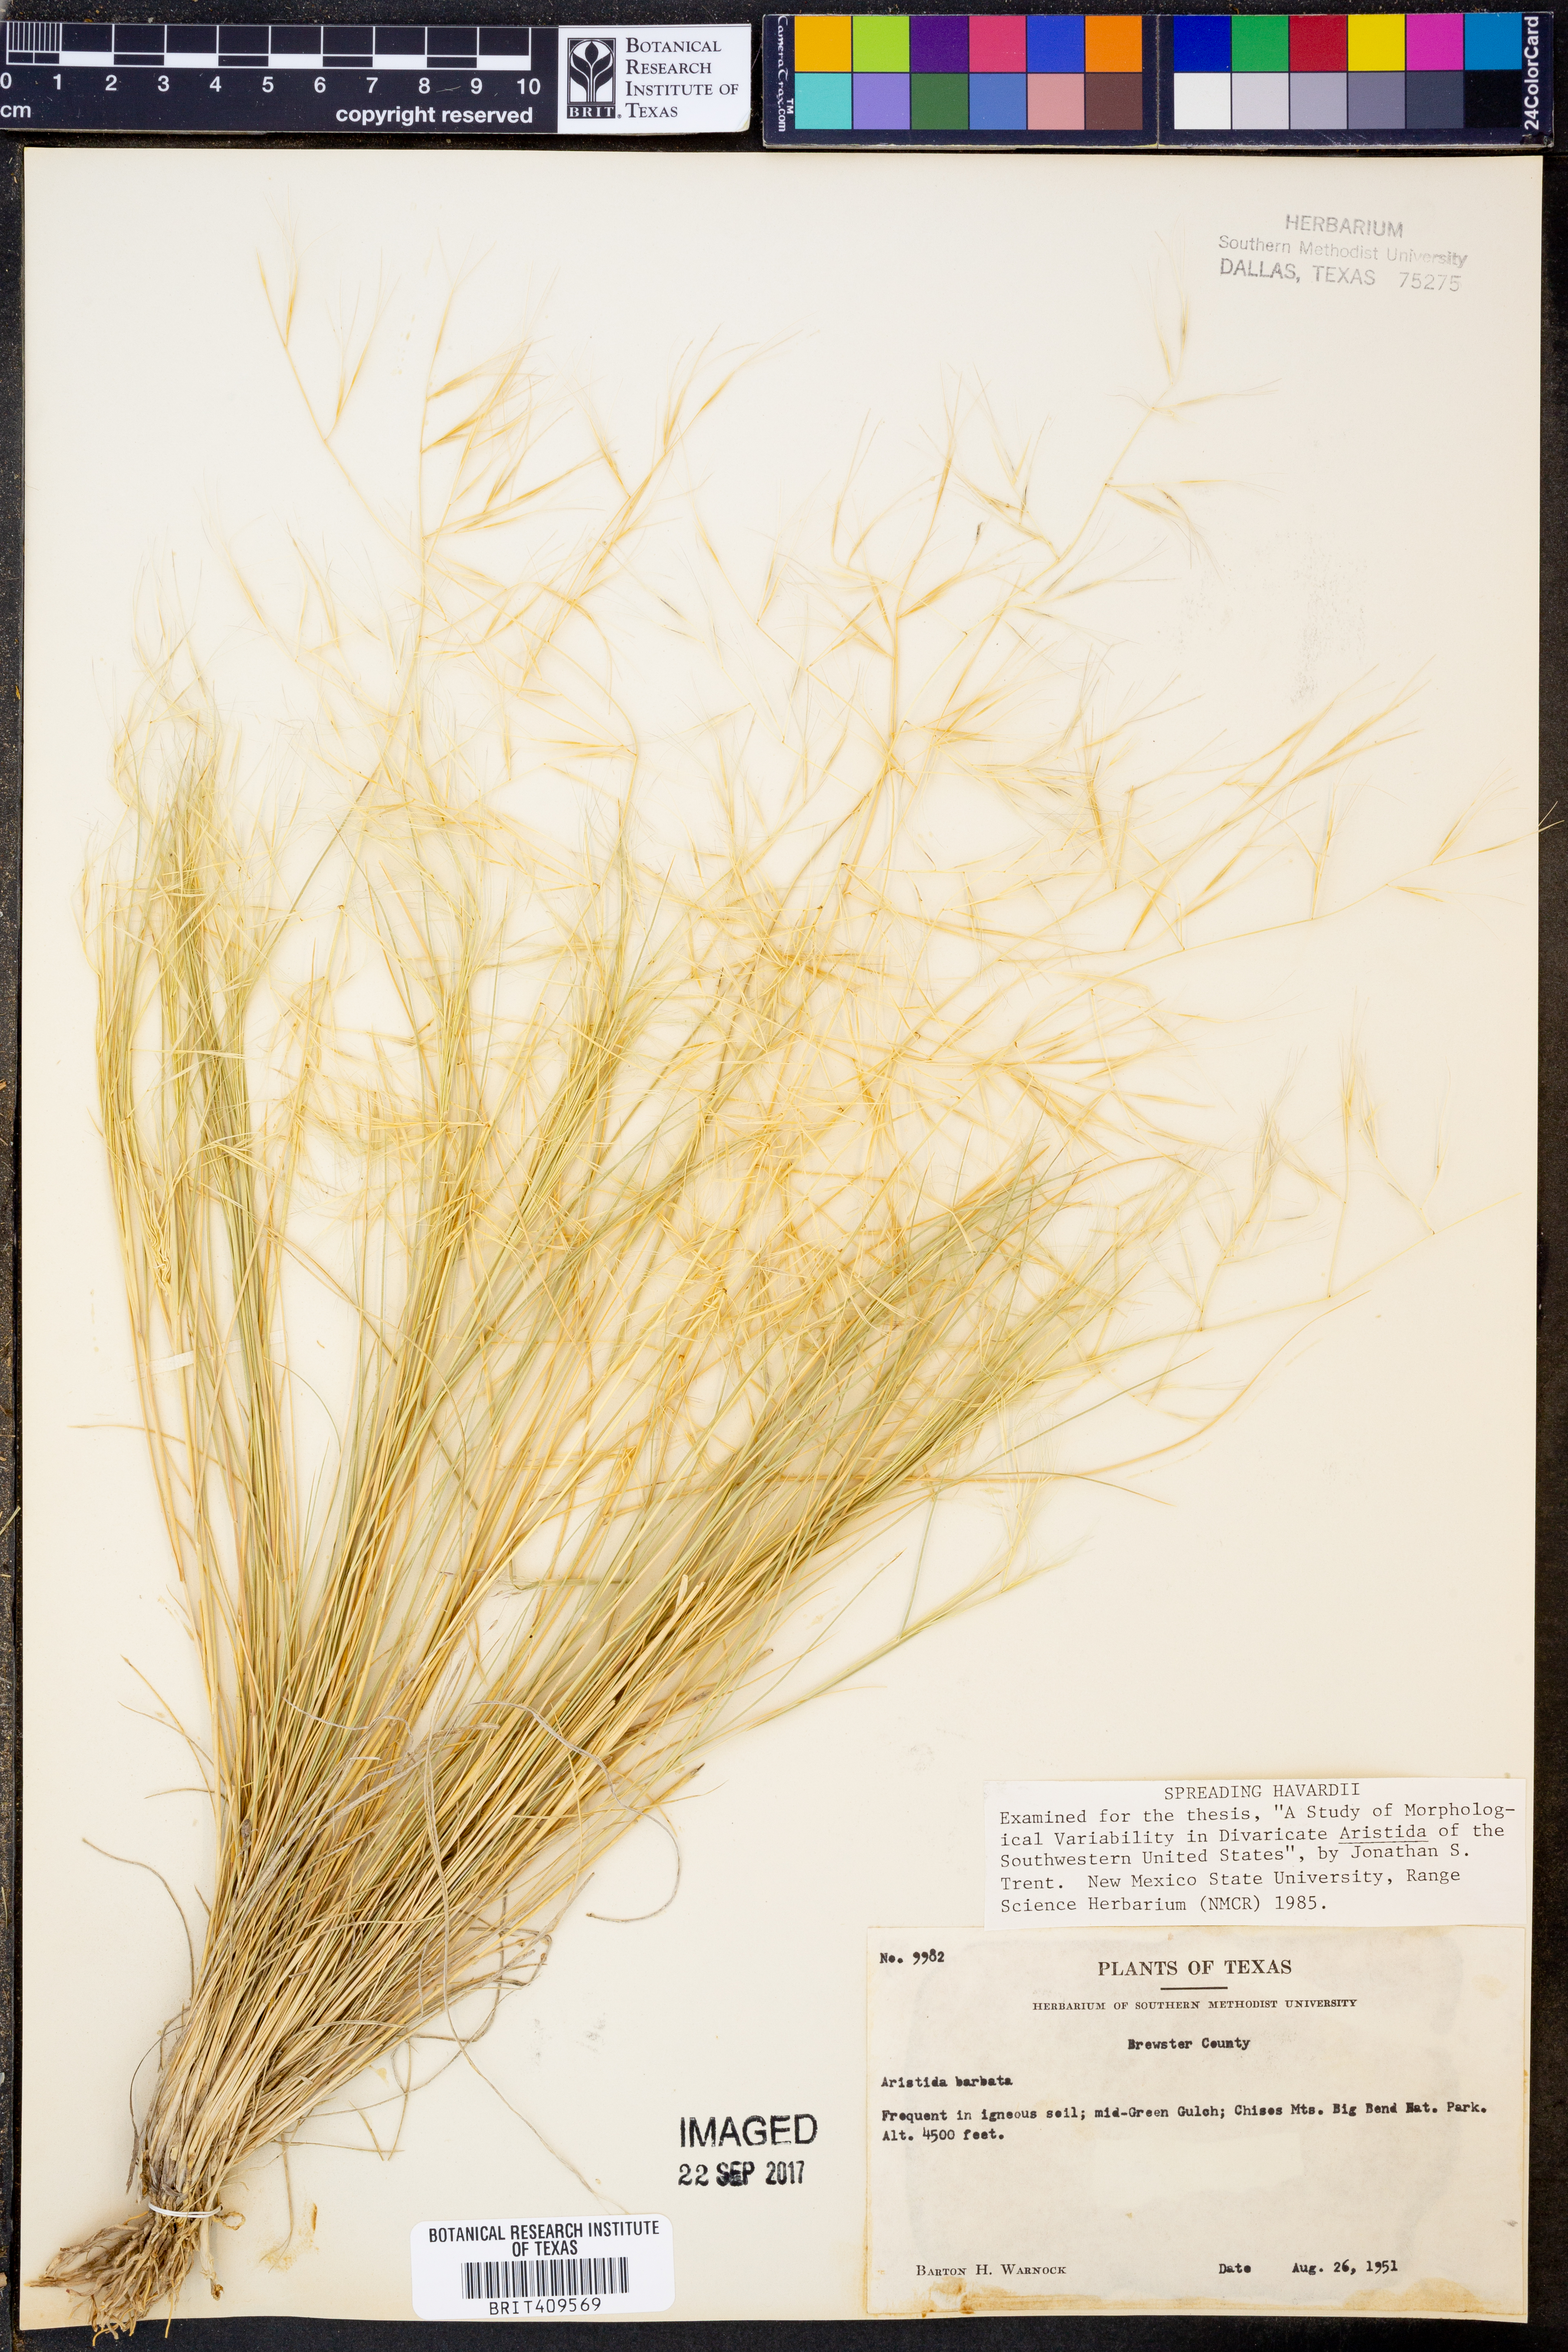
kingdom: Plantae
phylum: Tracheophyta
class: Liliopsida
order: Poales
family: Poaceae
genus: Aristida
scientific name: Aristida barbata
